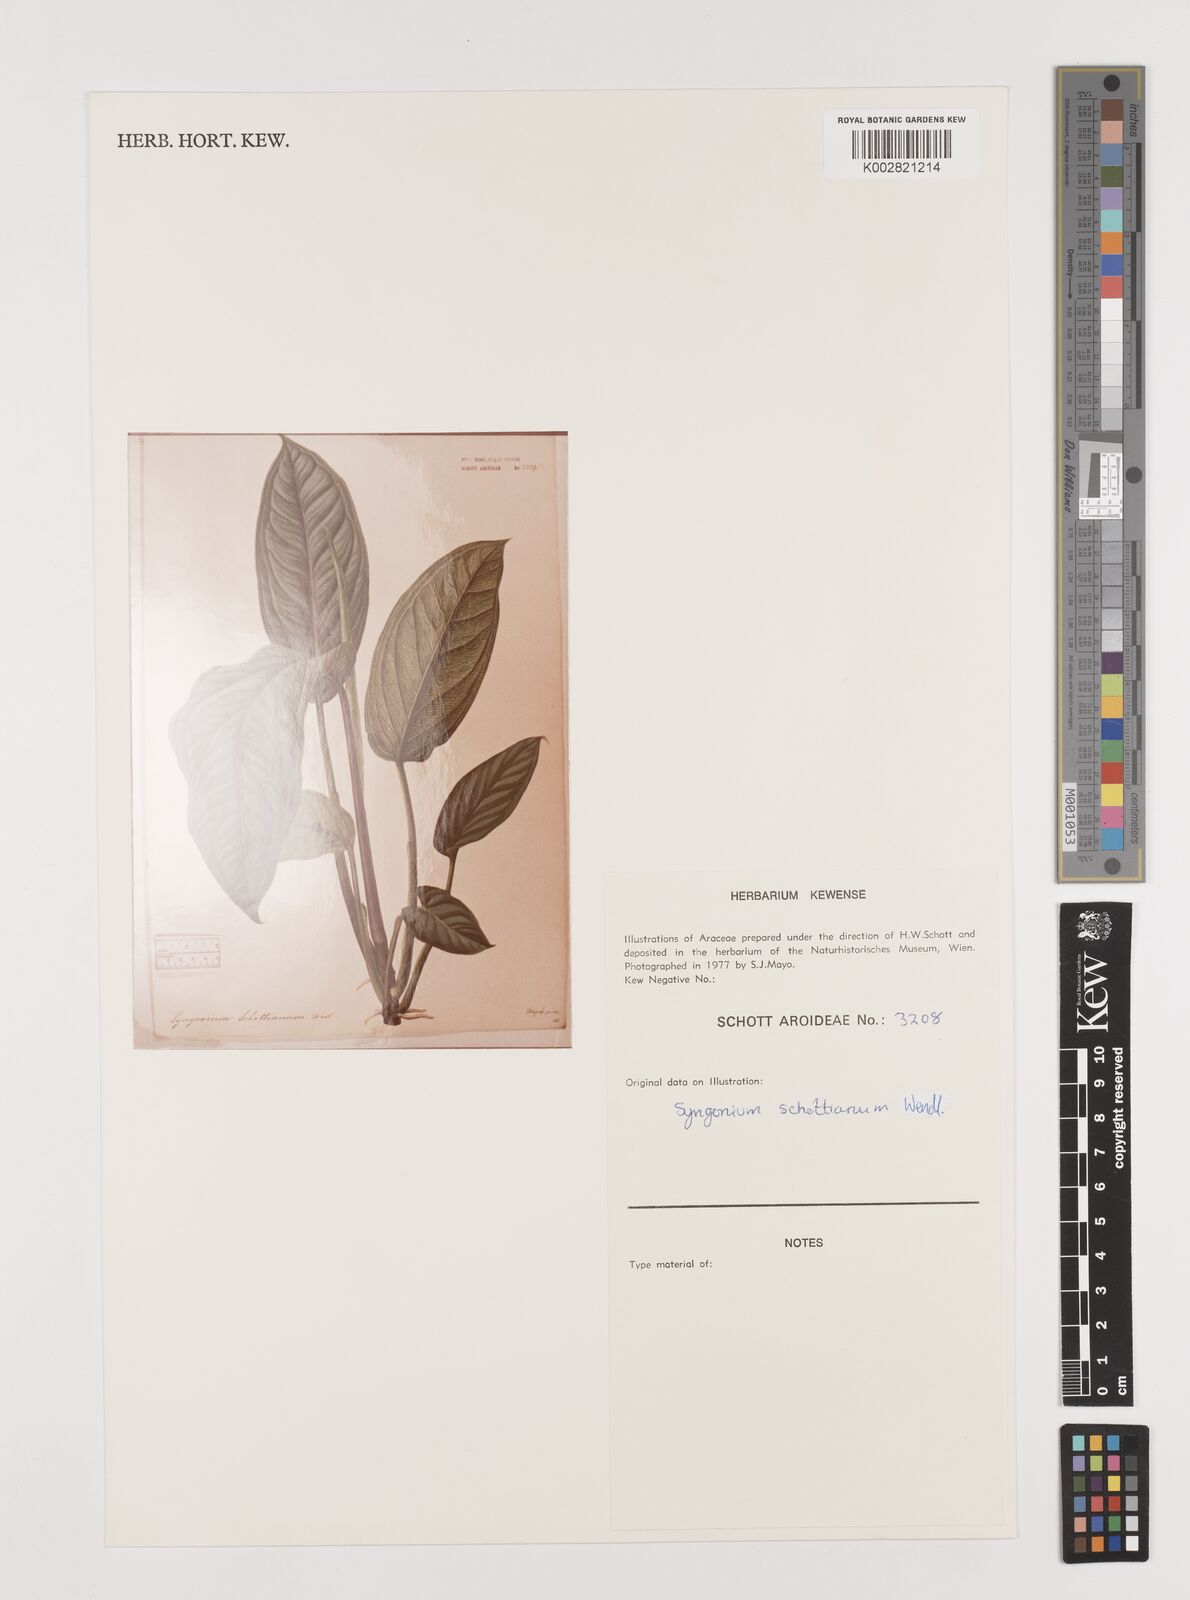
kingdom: Plantae
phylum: Tracheophyta
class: Liliopsida
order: Alismatales
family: Araceae
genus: Syngonium
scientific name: Syngonium schottianum
